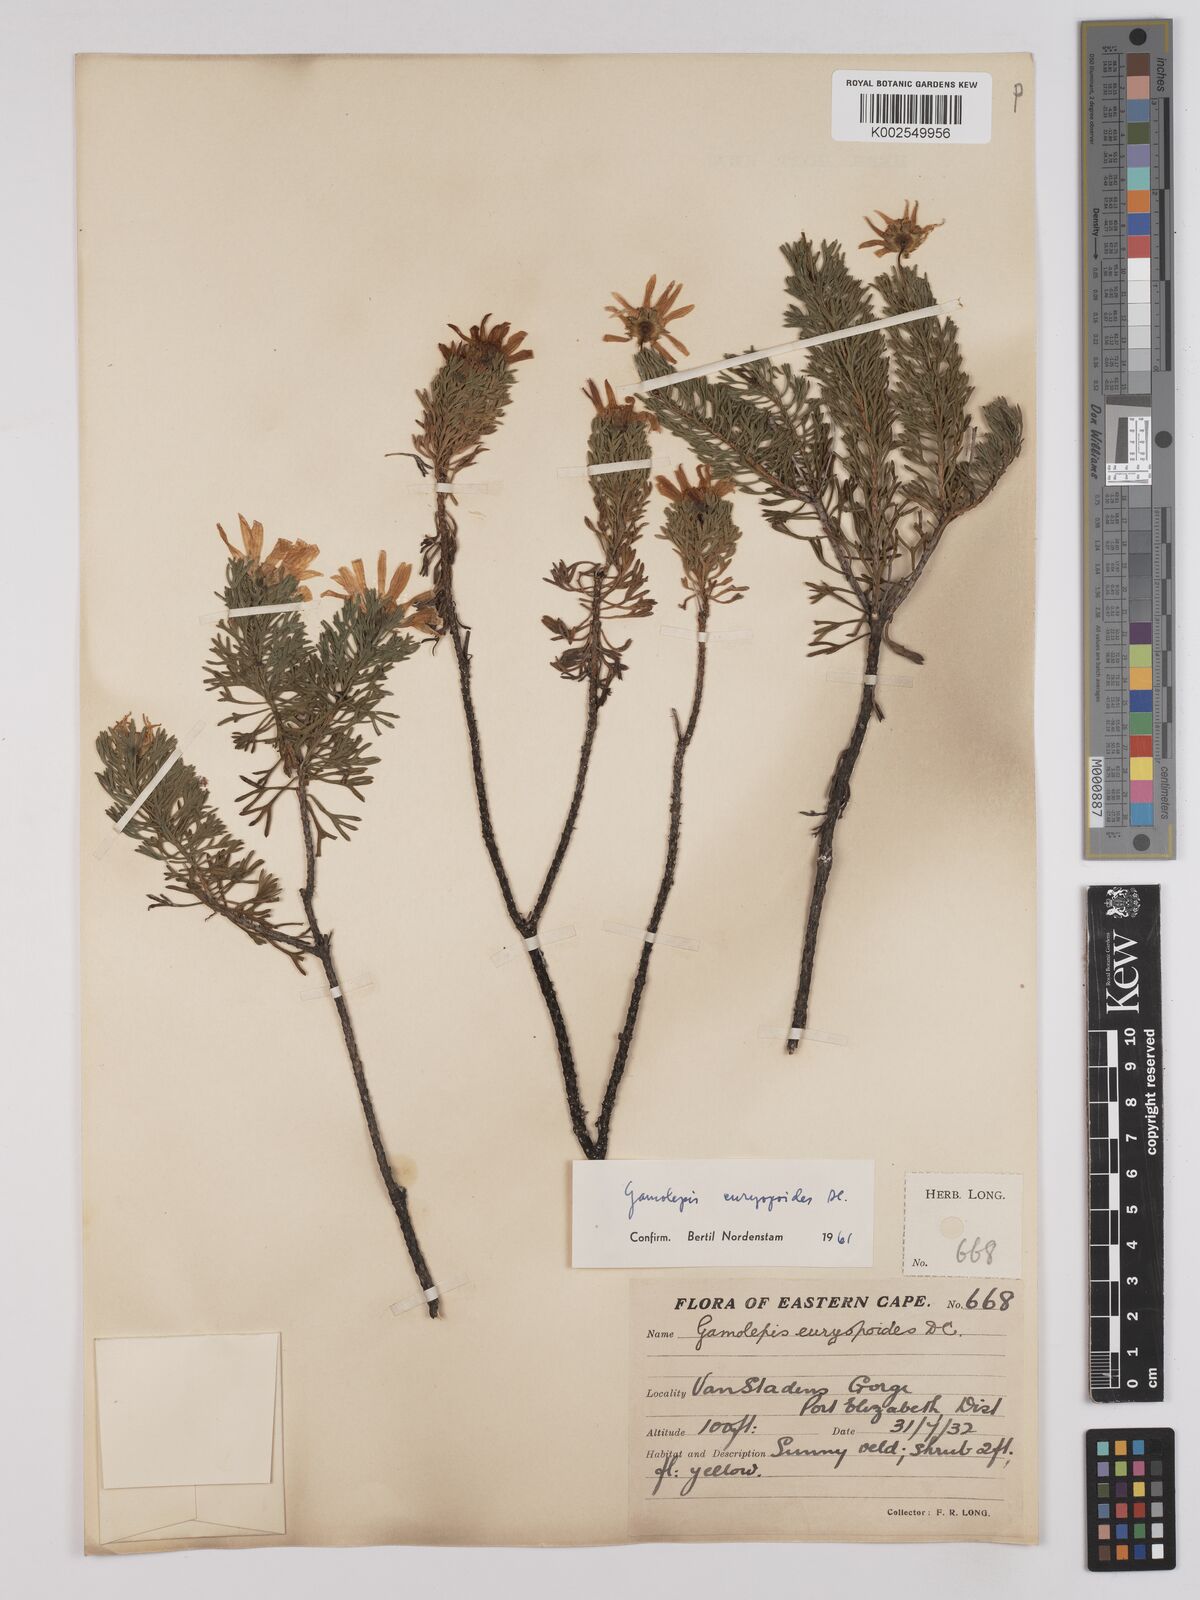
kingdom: Plantae
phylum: Tracheophyta
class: Magnoliopsida
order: Asterales
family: Asteraceae
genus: Euryops
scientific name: Euryops euryopoides
